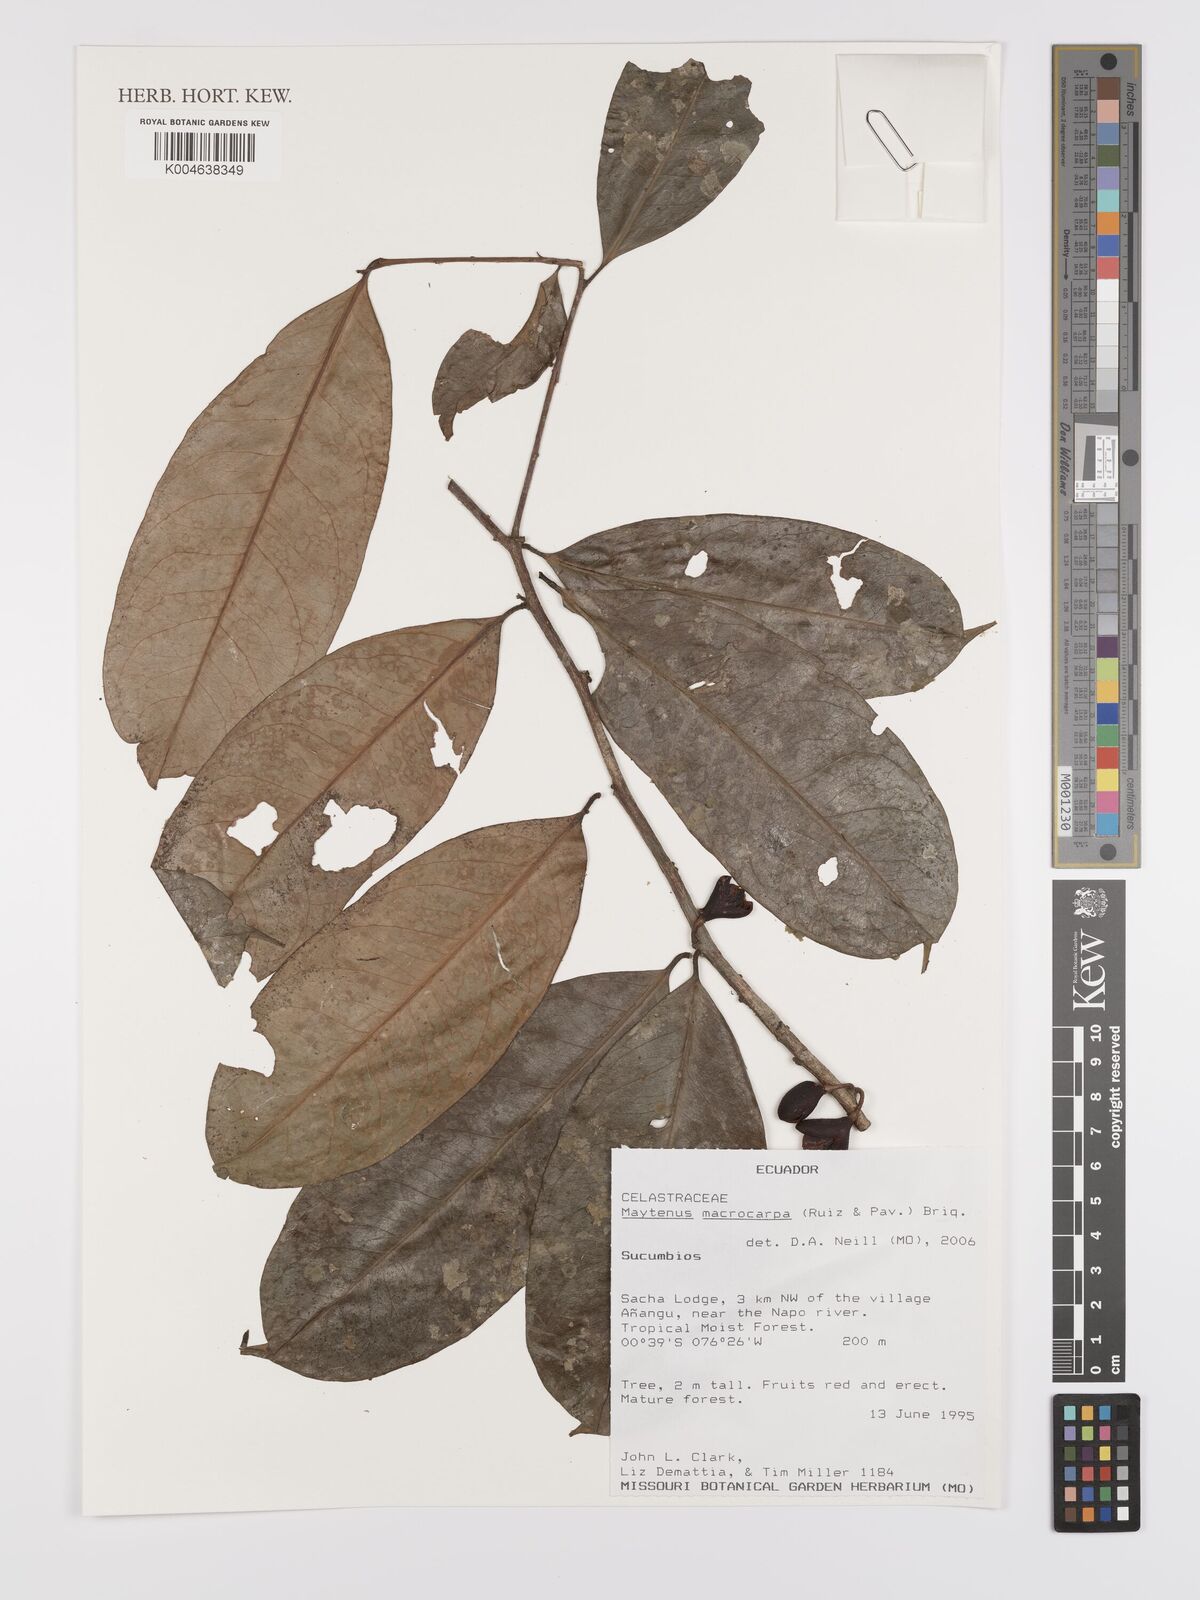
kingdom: Plantae
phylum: Tracheophyta
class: Magnoliopsida
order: Celastrales
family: Celastraceae
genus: Monteverdia
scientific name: Monteverdia macrocarpa
